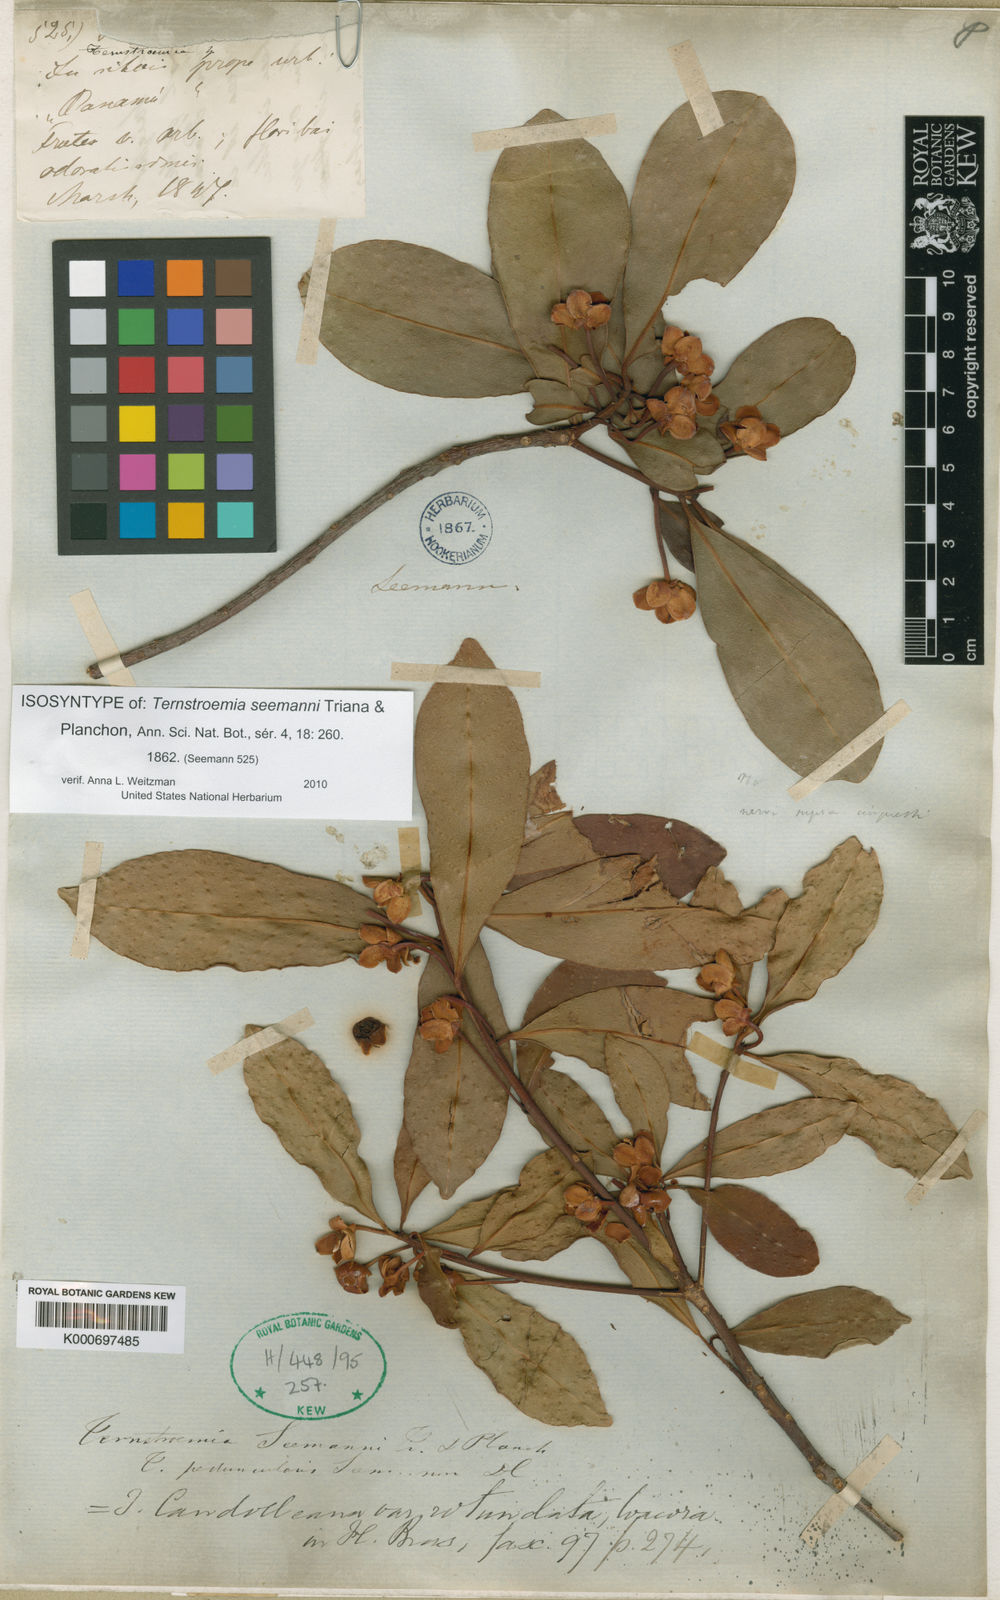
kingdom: Plantae
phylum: Tracheophyta
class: Magnoliopsida
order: Ericales
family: Pentaphylacaceae
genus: Ternstroemia
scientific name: Ternstroemia tepezapote
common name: Copey vera
